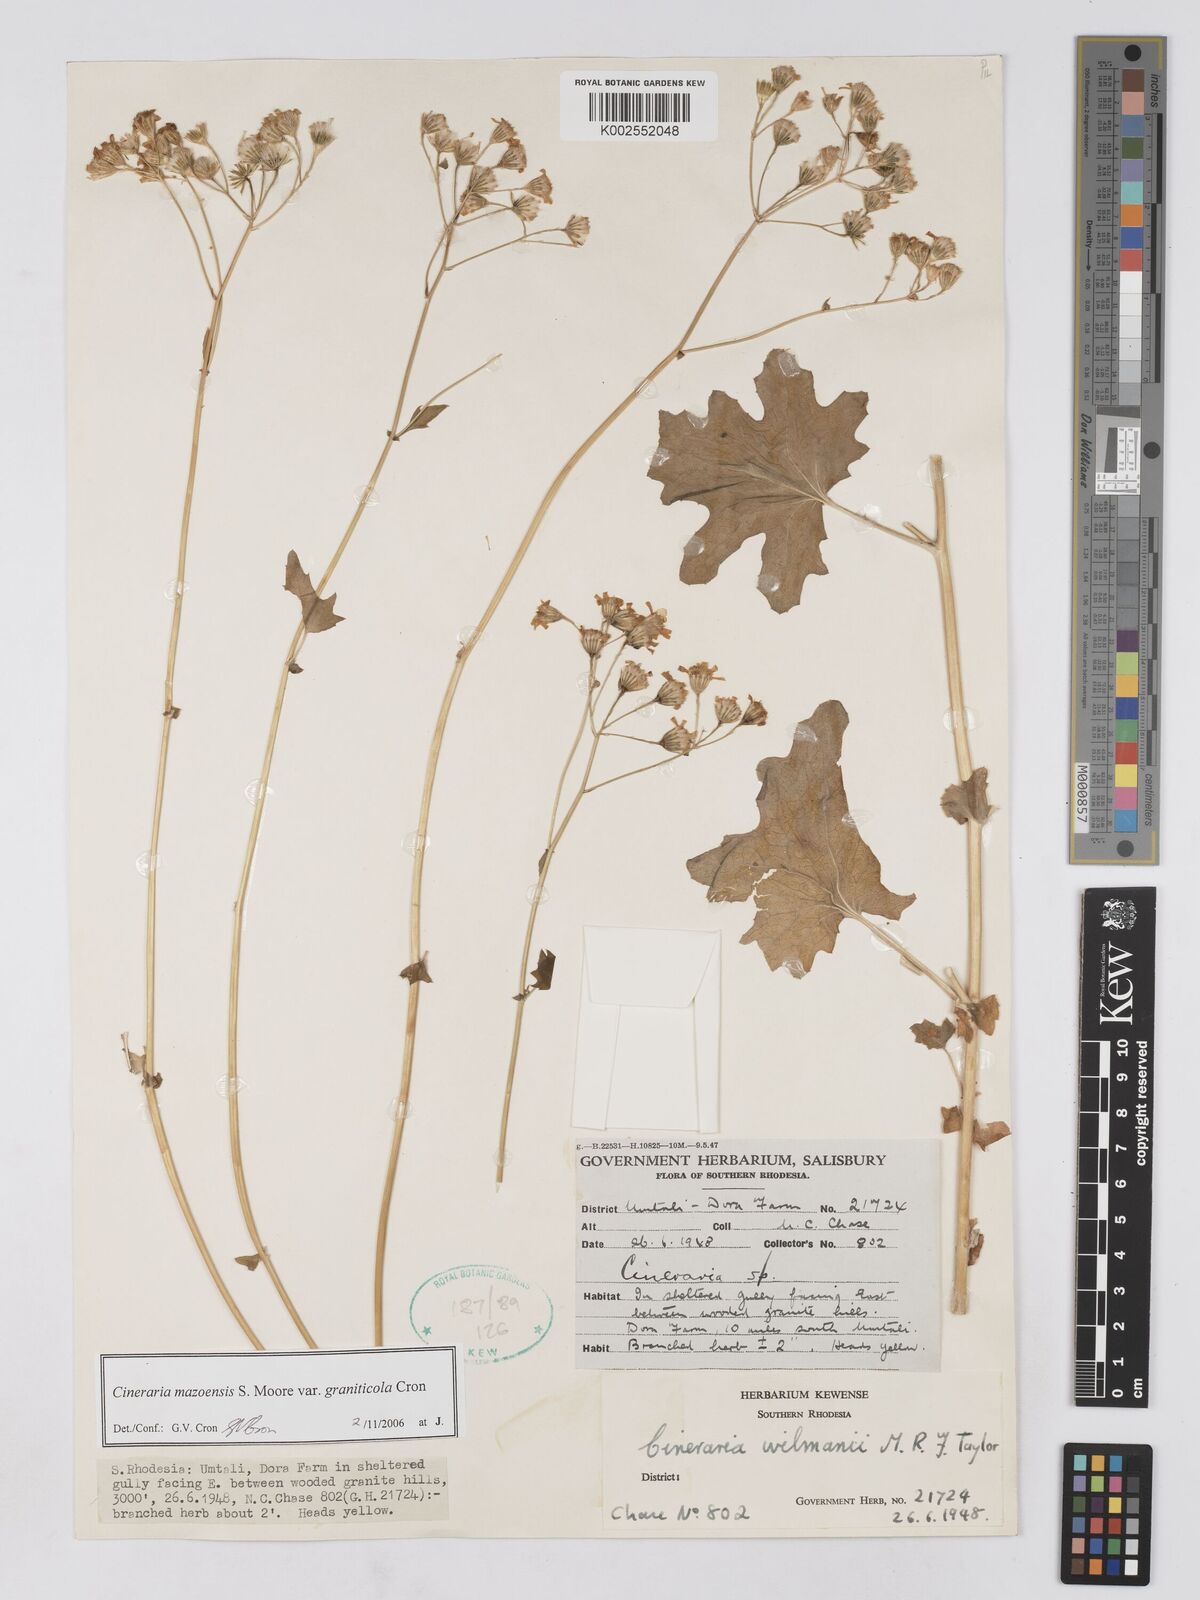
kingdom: Plantae
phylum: Tracheophyta
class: Magnoliopsida
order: Asterales
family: Asteraceae
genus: Cineraria
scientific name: Cineraria mazoensis
